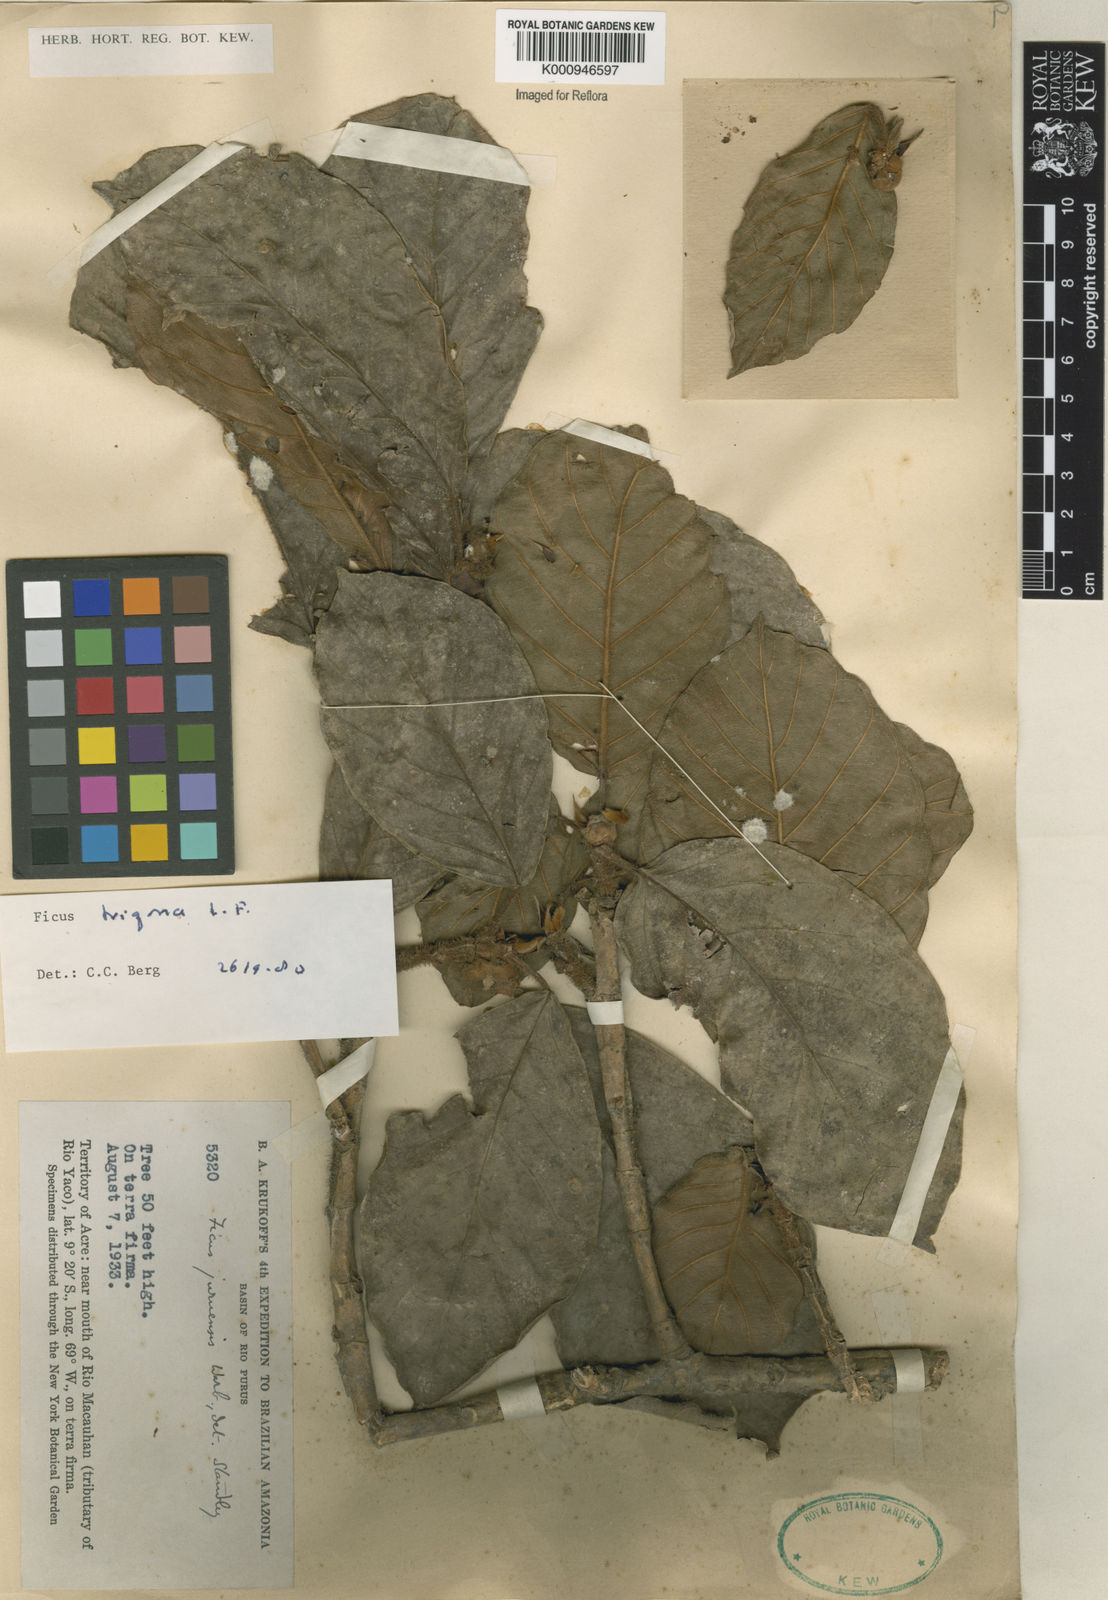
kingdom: Plantae
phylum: Tracheophyta
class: Magnoliopsida
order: Rosales
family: Moraceae
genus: Ficus
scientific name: Ficus trigona
